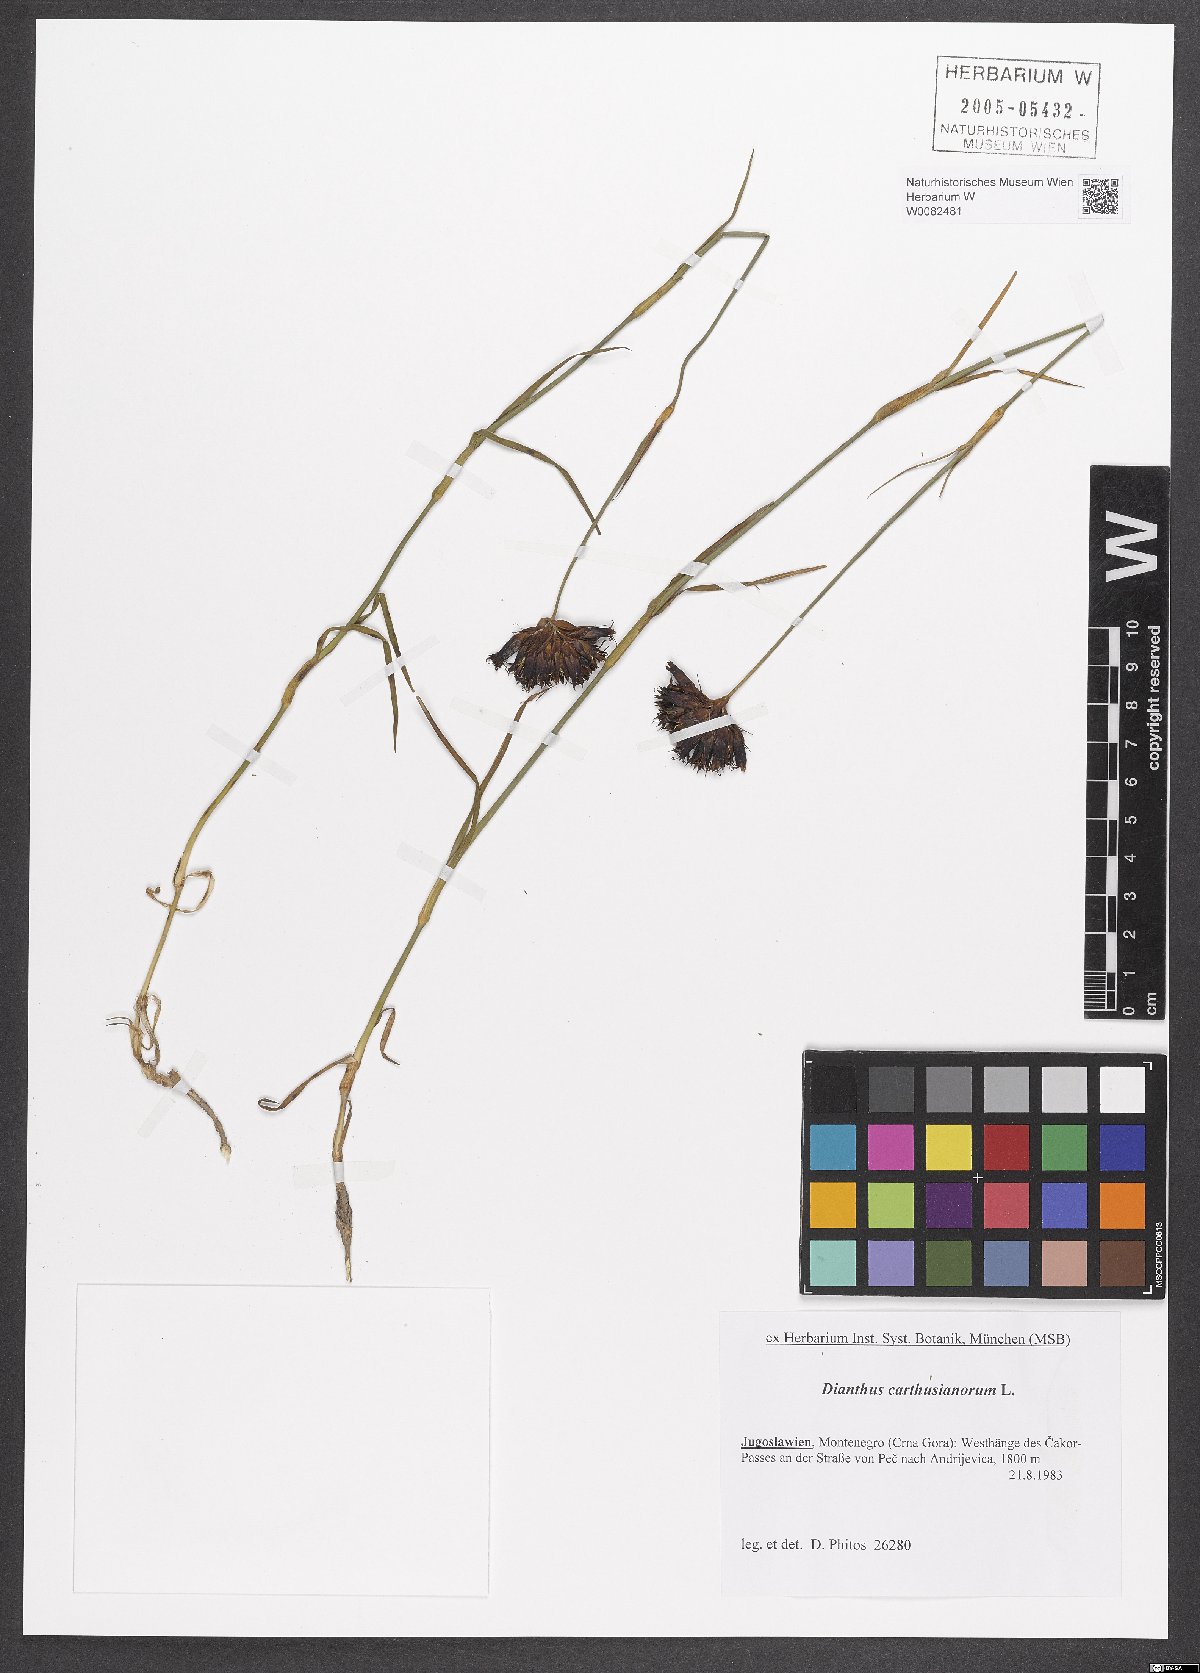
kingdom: Plantae
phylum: Tracheophyta
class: Magnoliopsida
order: Caryophyllales
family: Caryophyllaceae
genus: Dianthus
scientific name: Dianthus carthusianorum
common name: Carthusian pink
